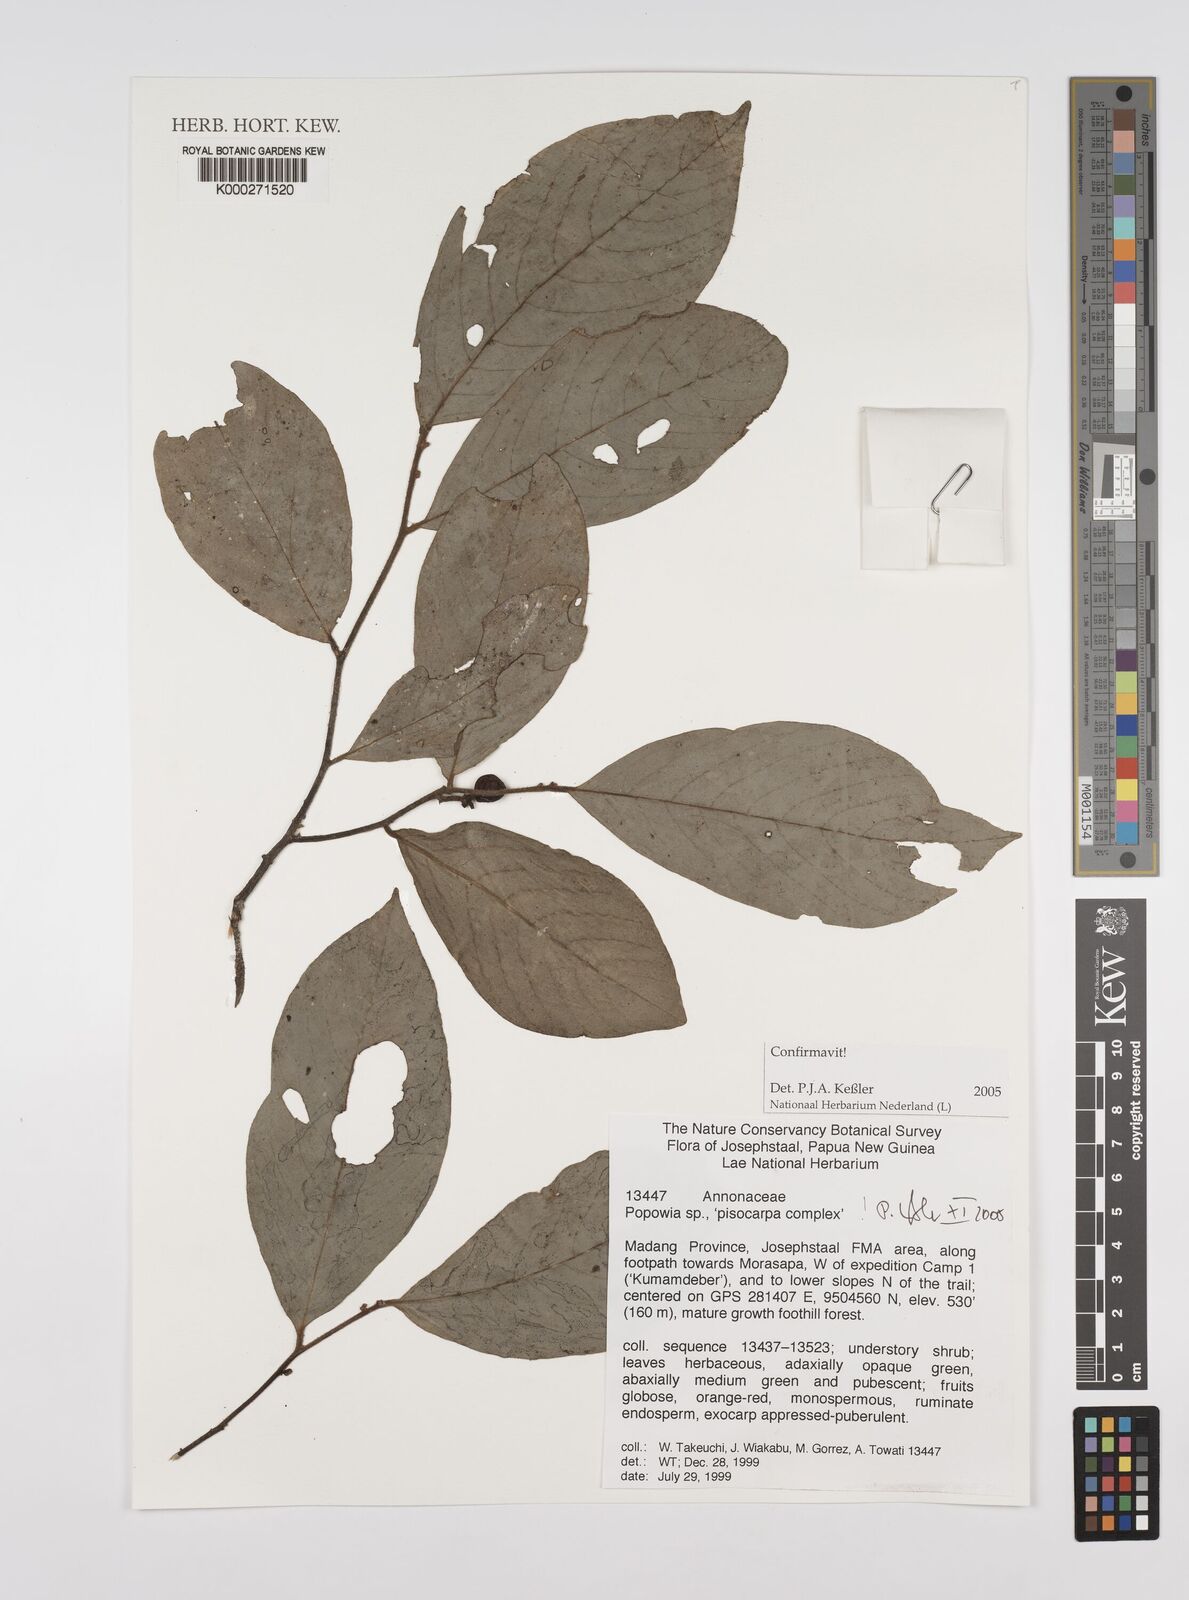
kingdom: Plantae
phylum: Tracheophyta
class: Magnoliopsida
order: Magnoliales
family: Annonaceae
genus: Popowia
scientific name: Popowia
